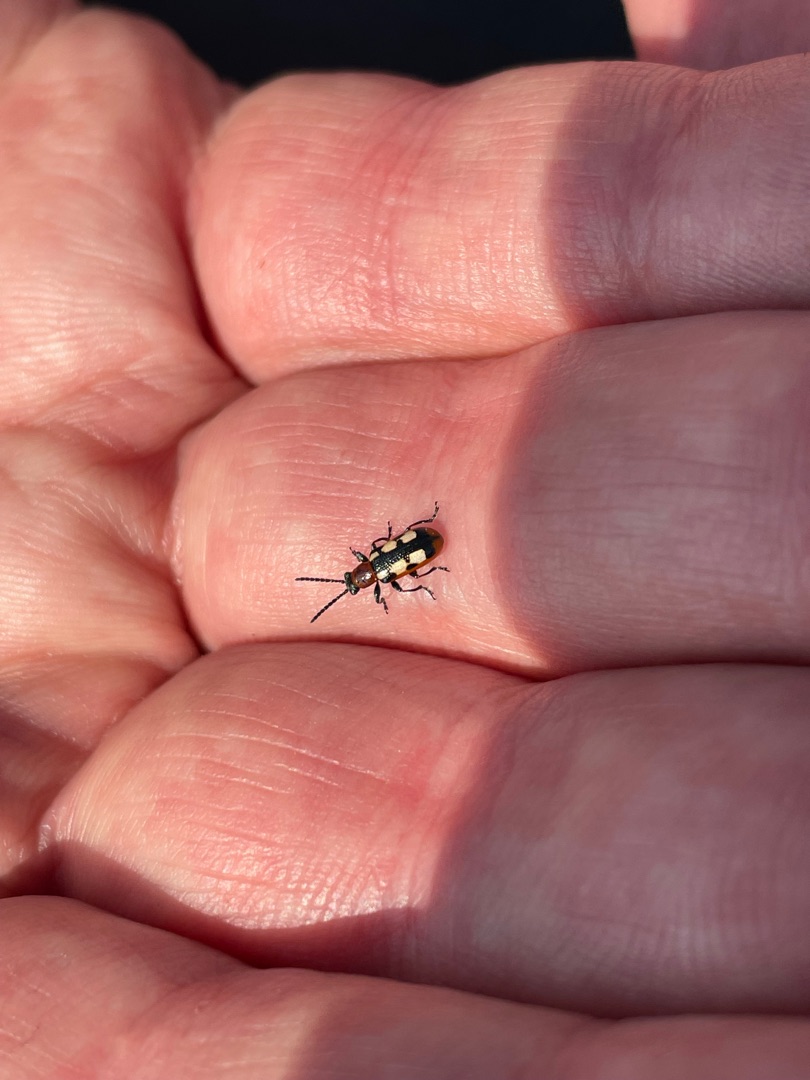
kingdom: Animalia
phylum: Arthropoda
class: Insecta
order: Coleoptera
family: Chrysomelidae
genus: Crioceris
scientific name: Crioceris asparagi
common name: Gulplettet aspargesbille
